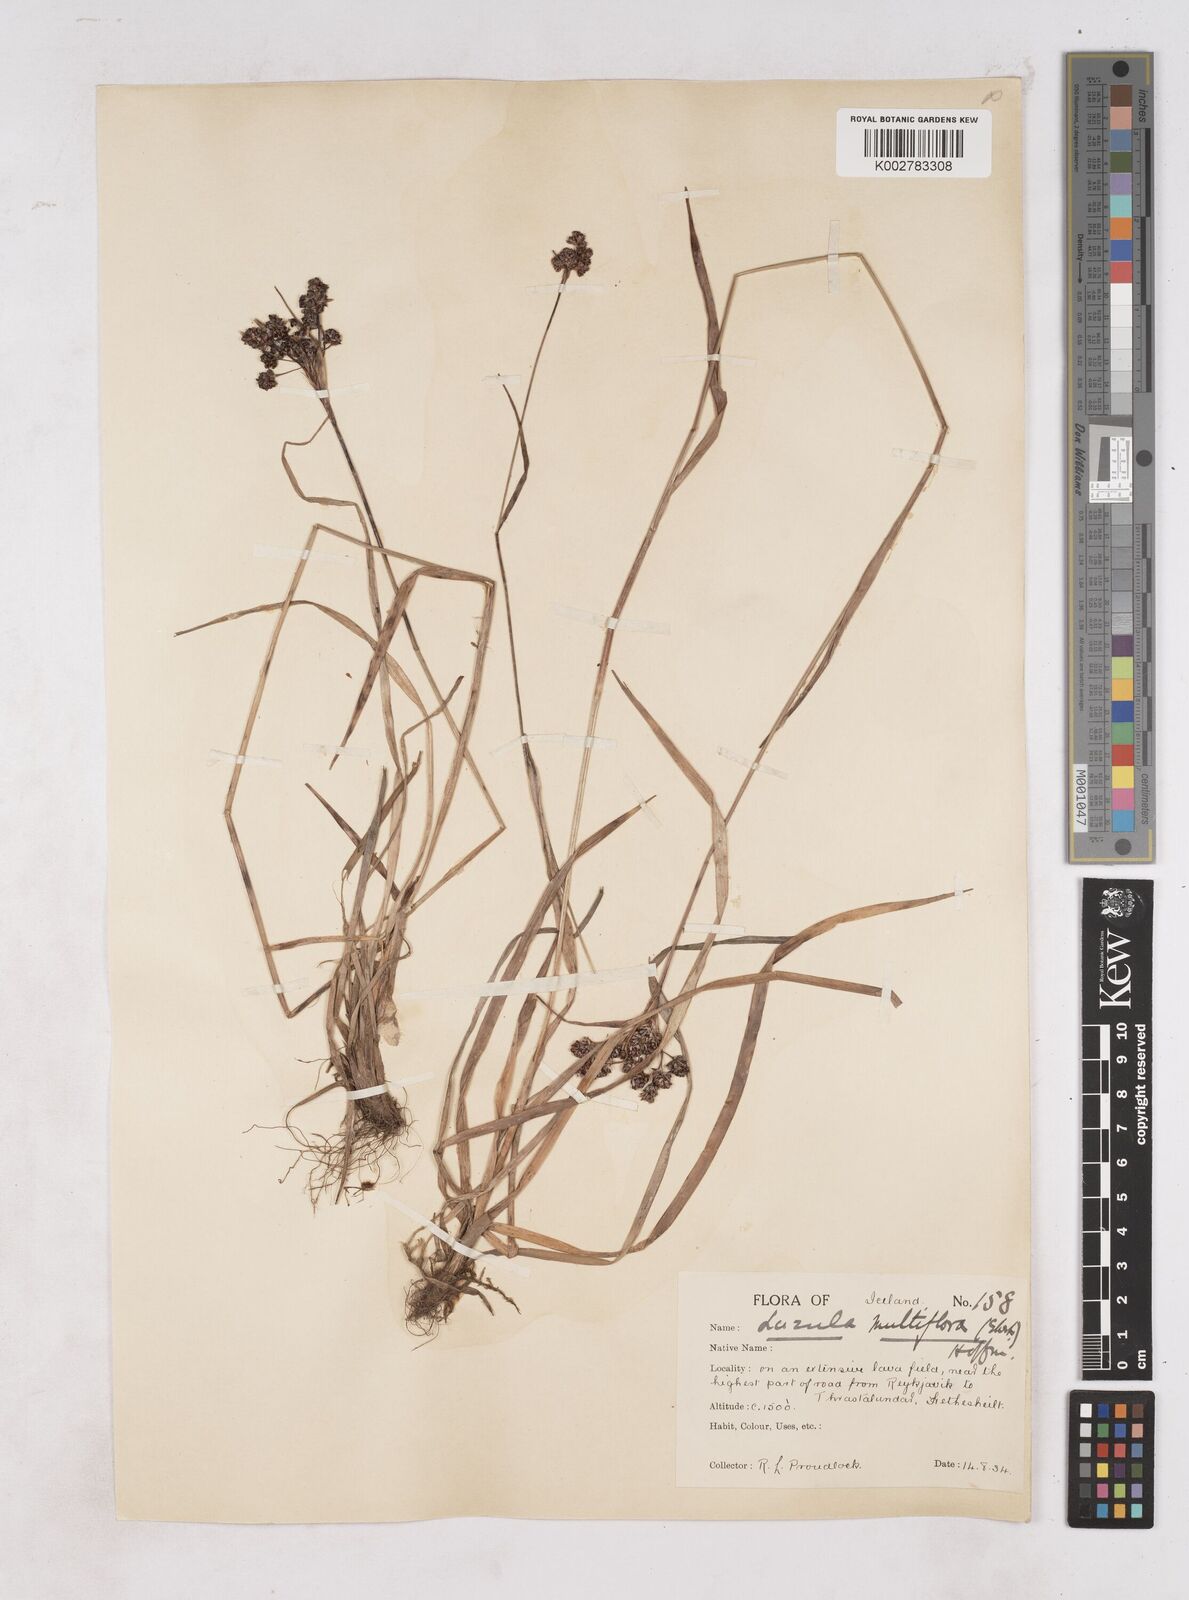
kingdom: Plantae
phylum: Tracheophyta
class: Liliopsida
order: Poales
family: Juncaceae
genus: Luzula
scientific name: Luzula multiflora
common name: Heath wood-rush
